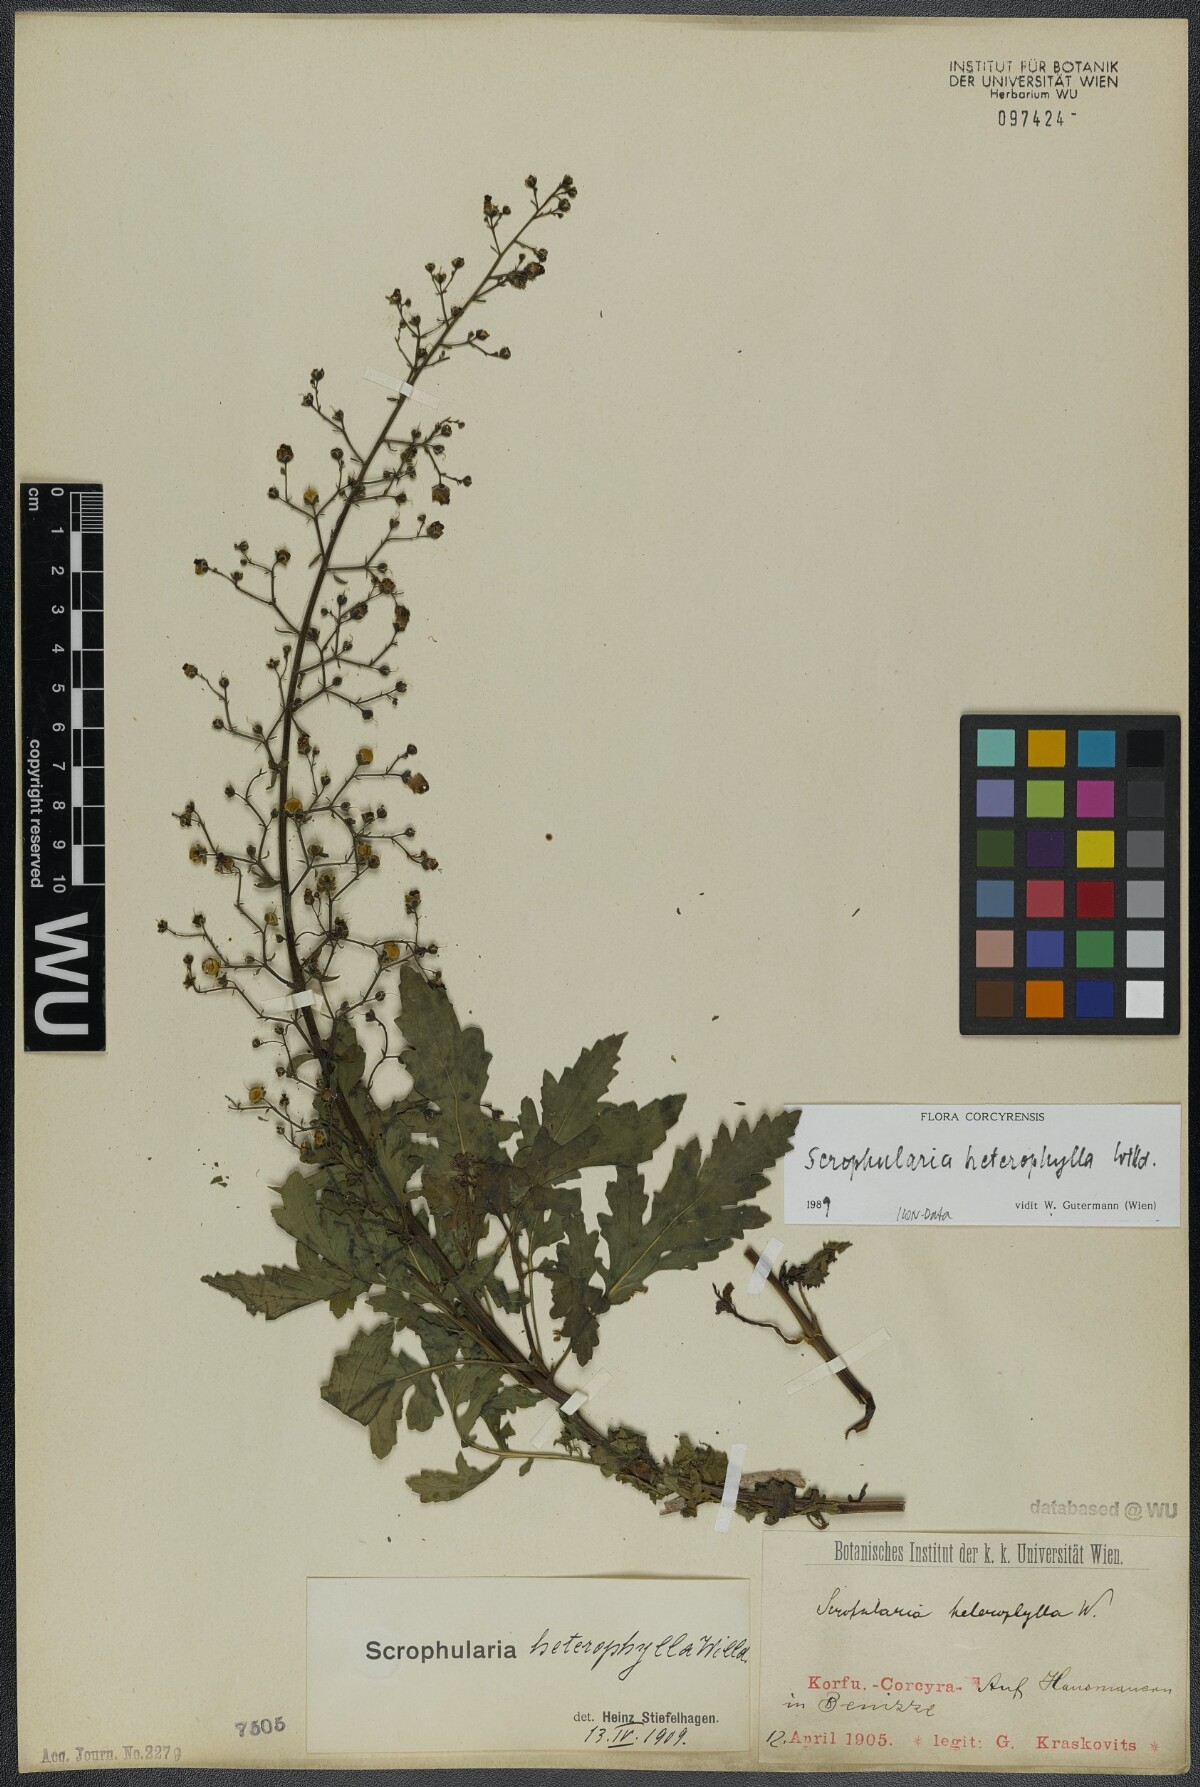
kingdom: Plantae
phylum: Tracheophyta
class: Magnoliopsida
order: Lamiales
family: Scrophulariaceae
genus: Scrophularia
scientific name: Scrophularia heterophylla
